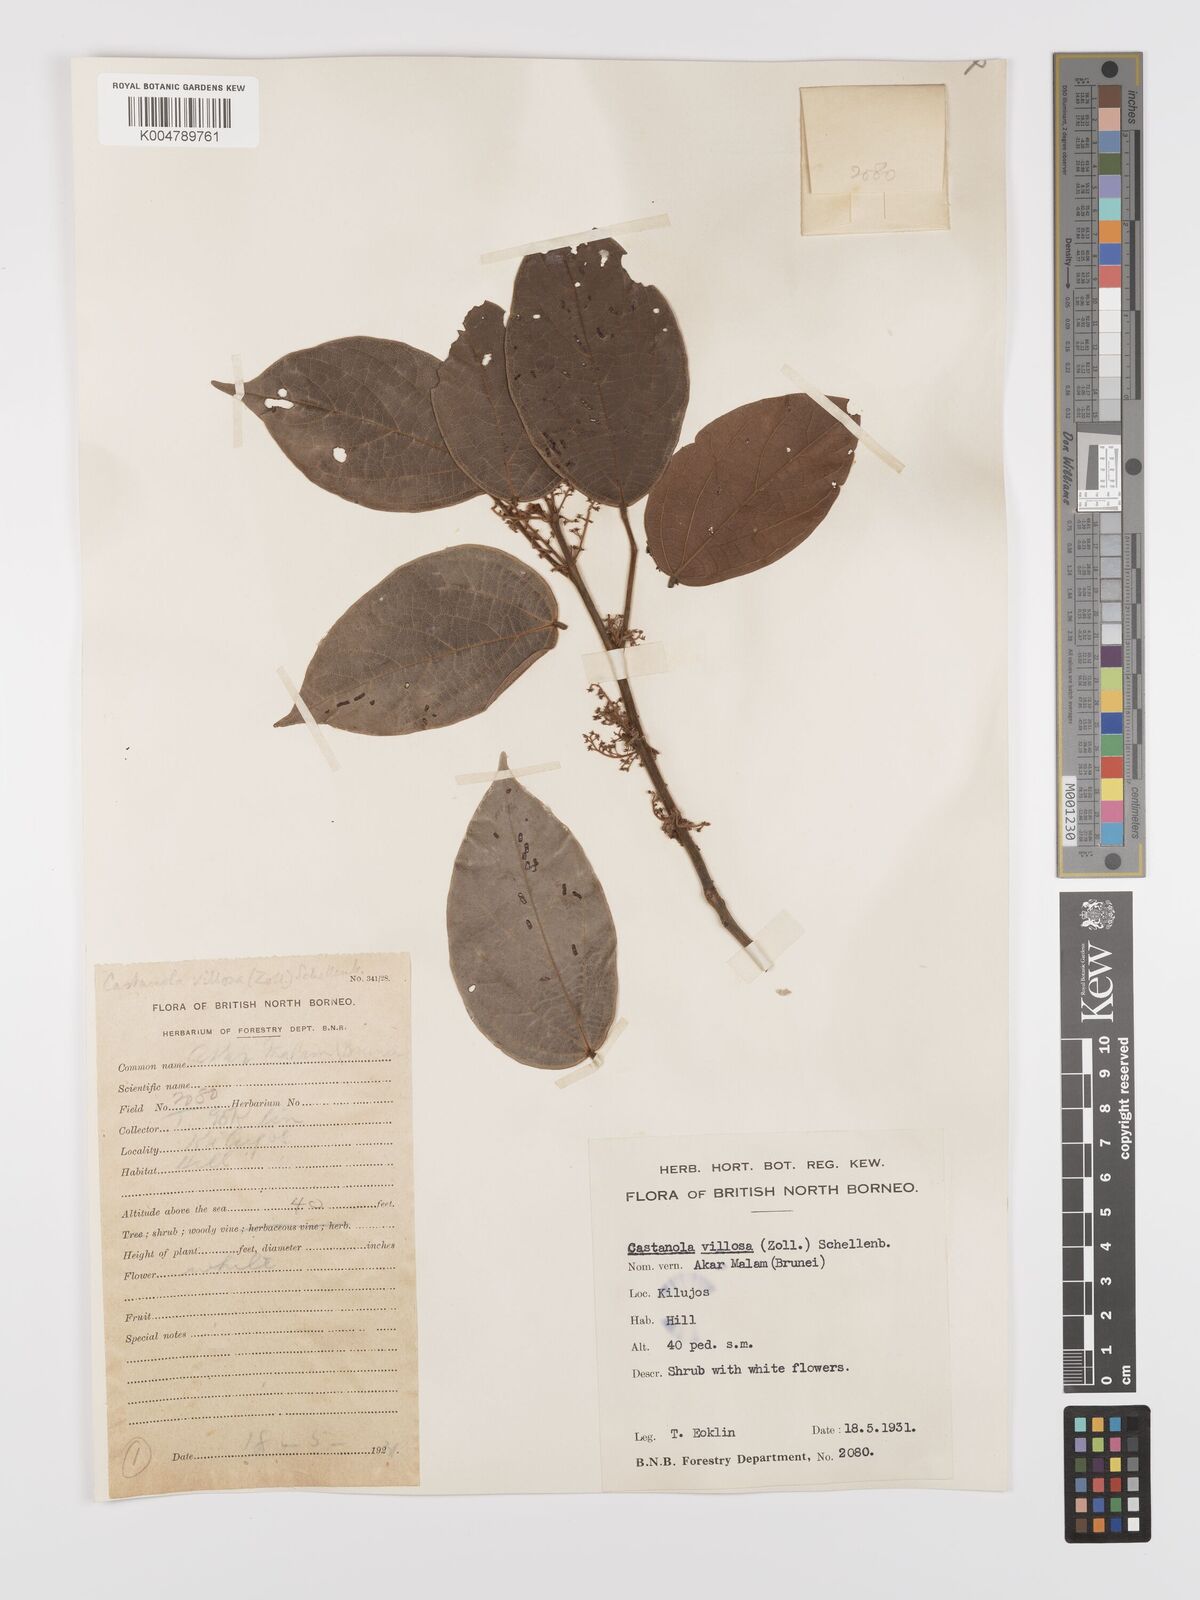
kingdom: Plantae
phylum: Tracheophyta
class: Magnoliopsida
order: Oxalidales
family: Connaraceae
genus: Agelaea
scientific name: Agelaea borneensis
